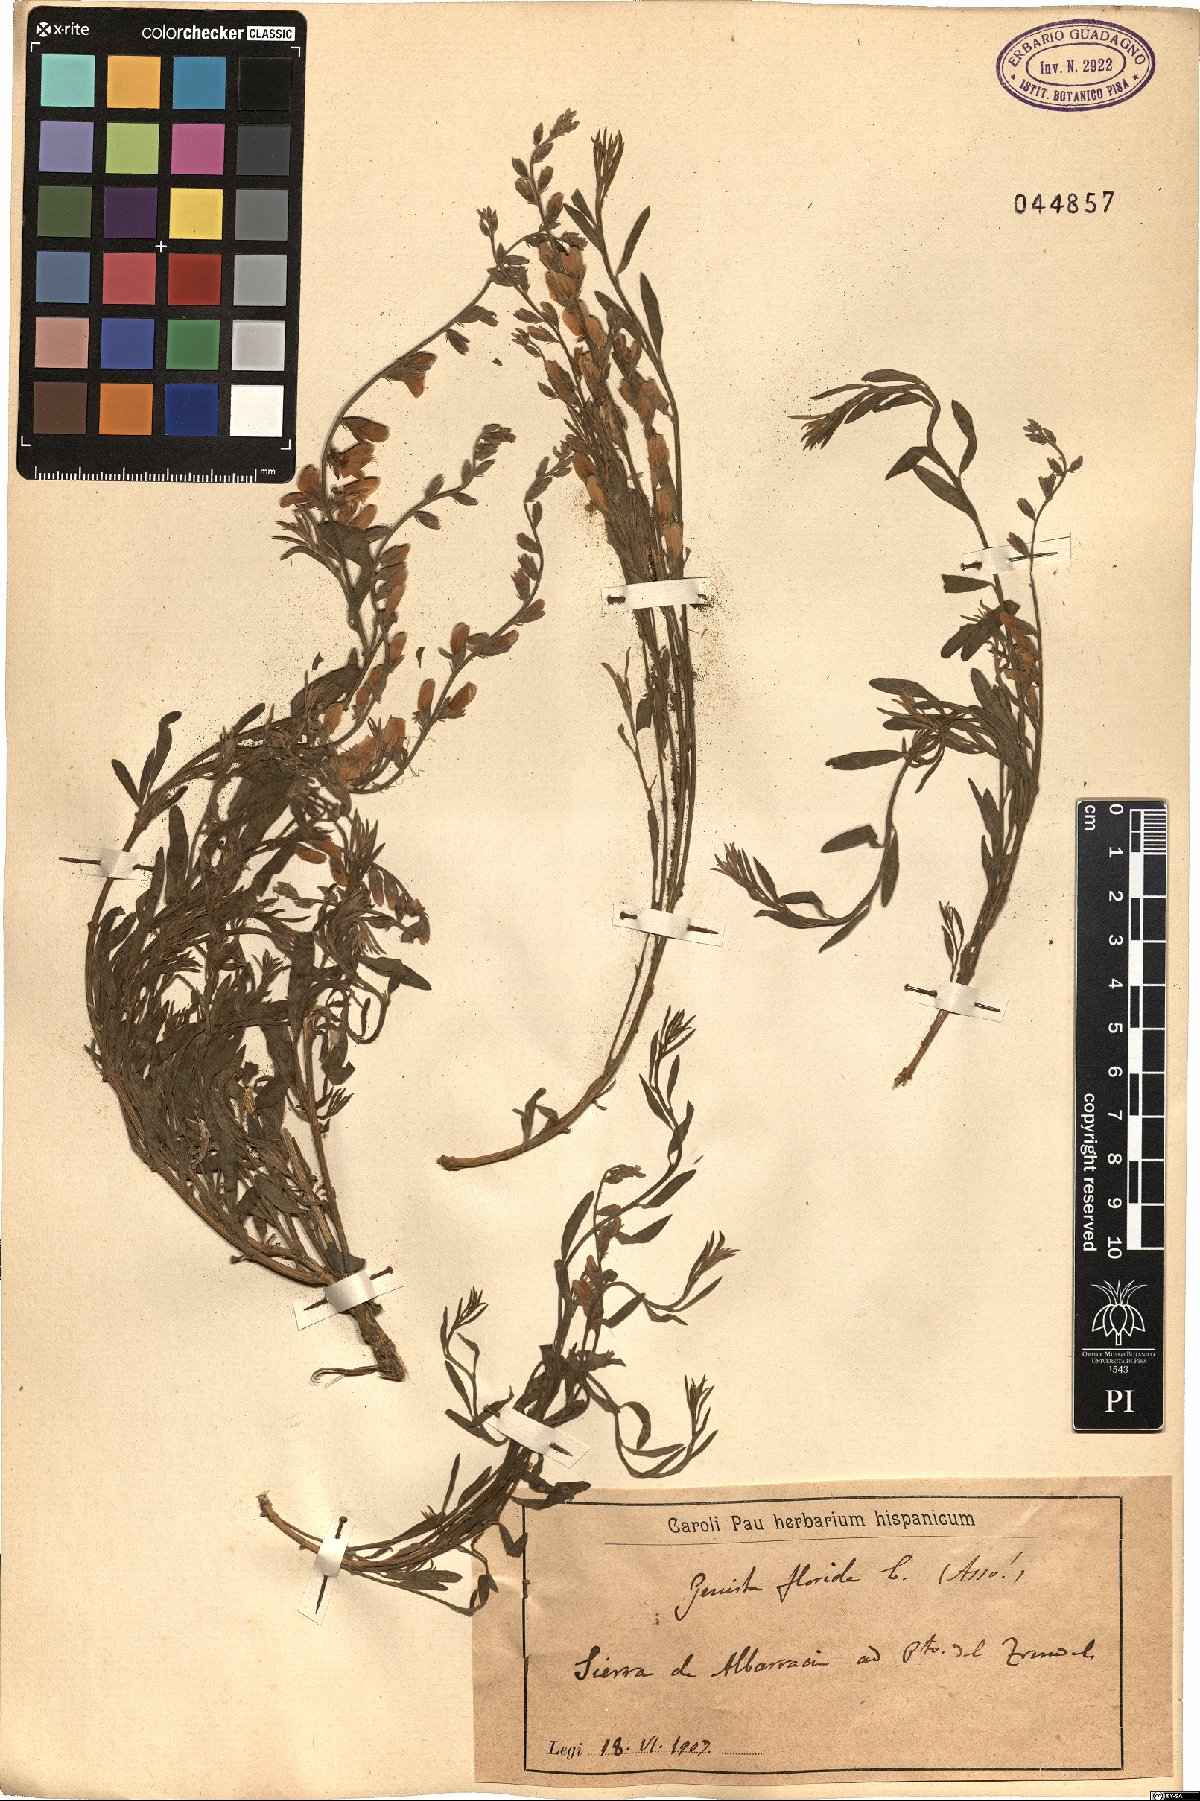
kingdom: Plantae
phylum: Tracheophyta
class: Magnoliopsida
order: Fabales
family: Fabaceae
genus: Genista
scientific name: Genista florida
